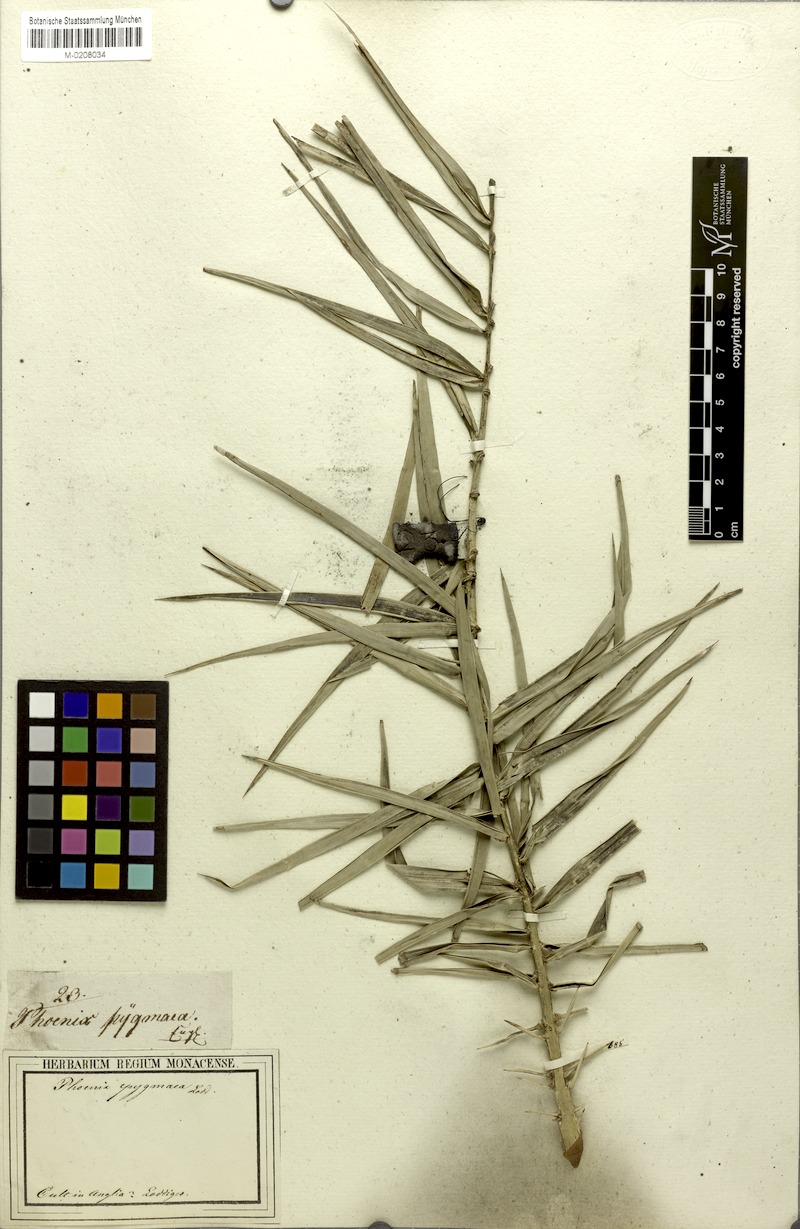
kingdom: Plantae
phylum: Tracheophyta
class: Liliopsida
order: Arecales
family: Arecaceae
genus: Phoenix
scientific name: Phoenix loureiroi
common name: Loureiro's palm
